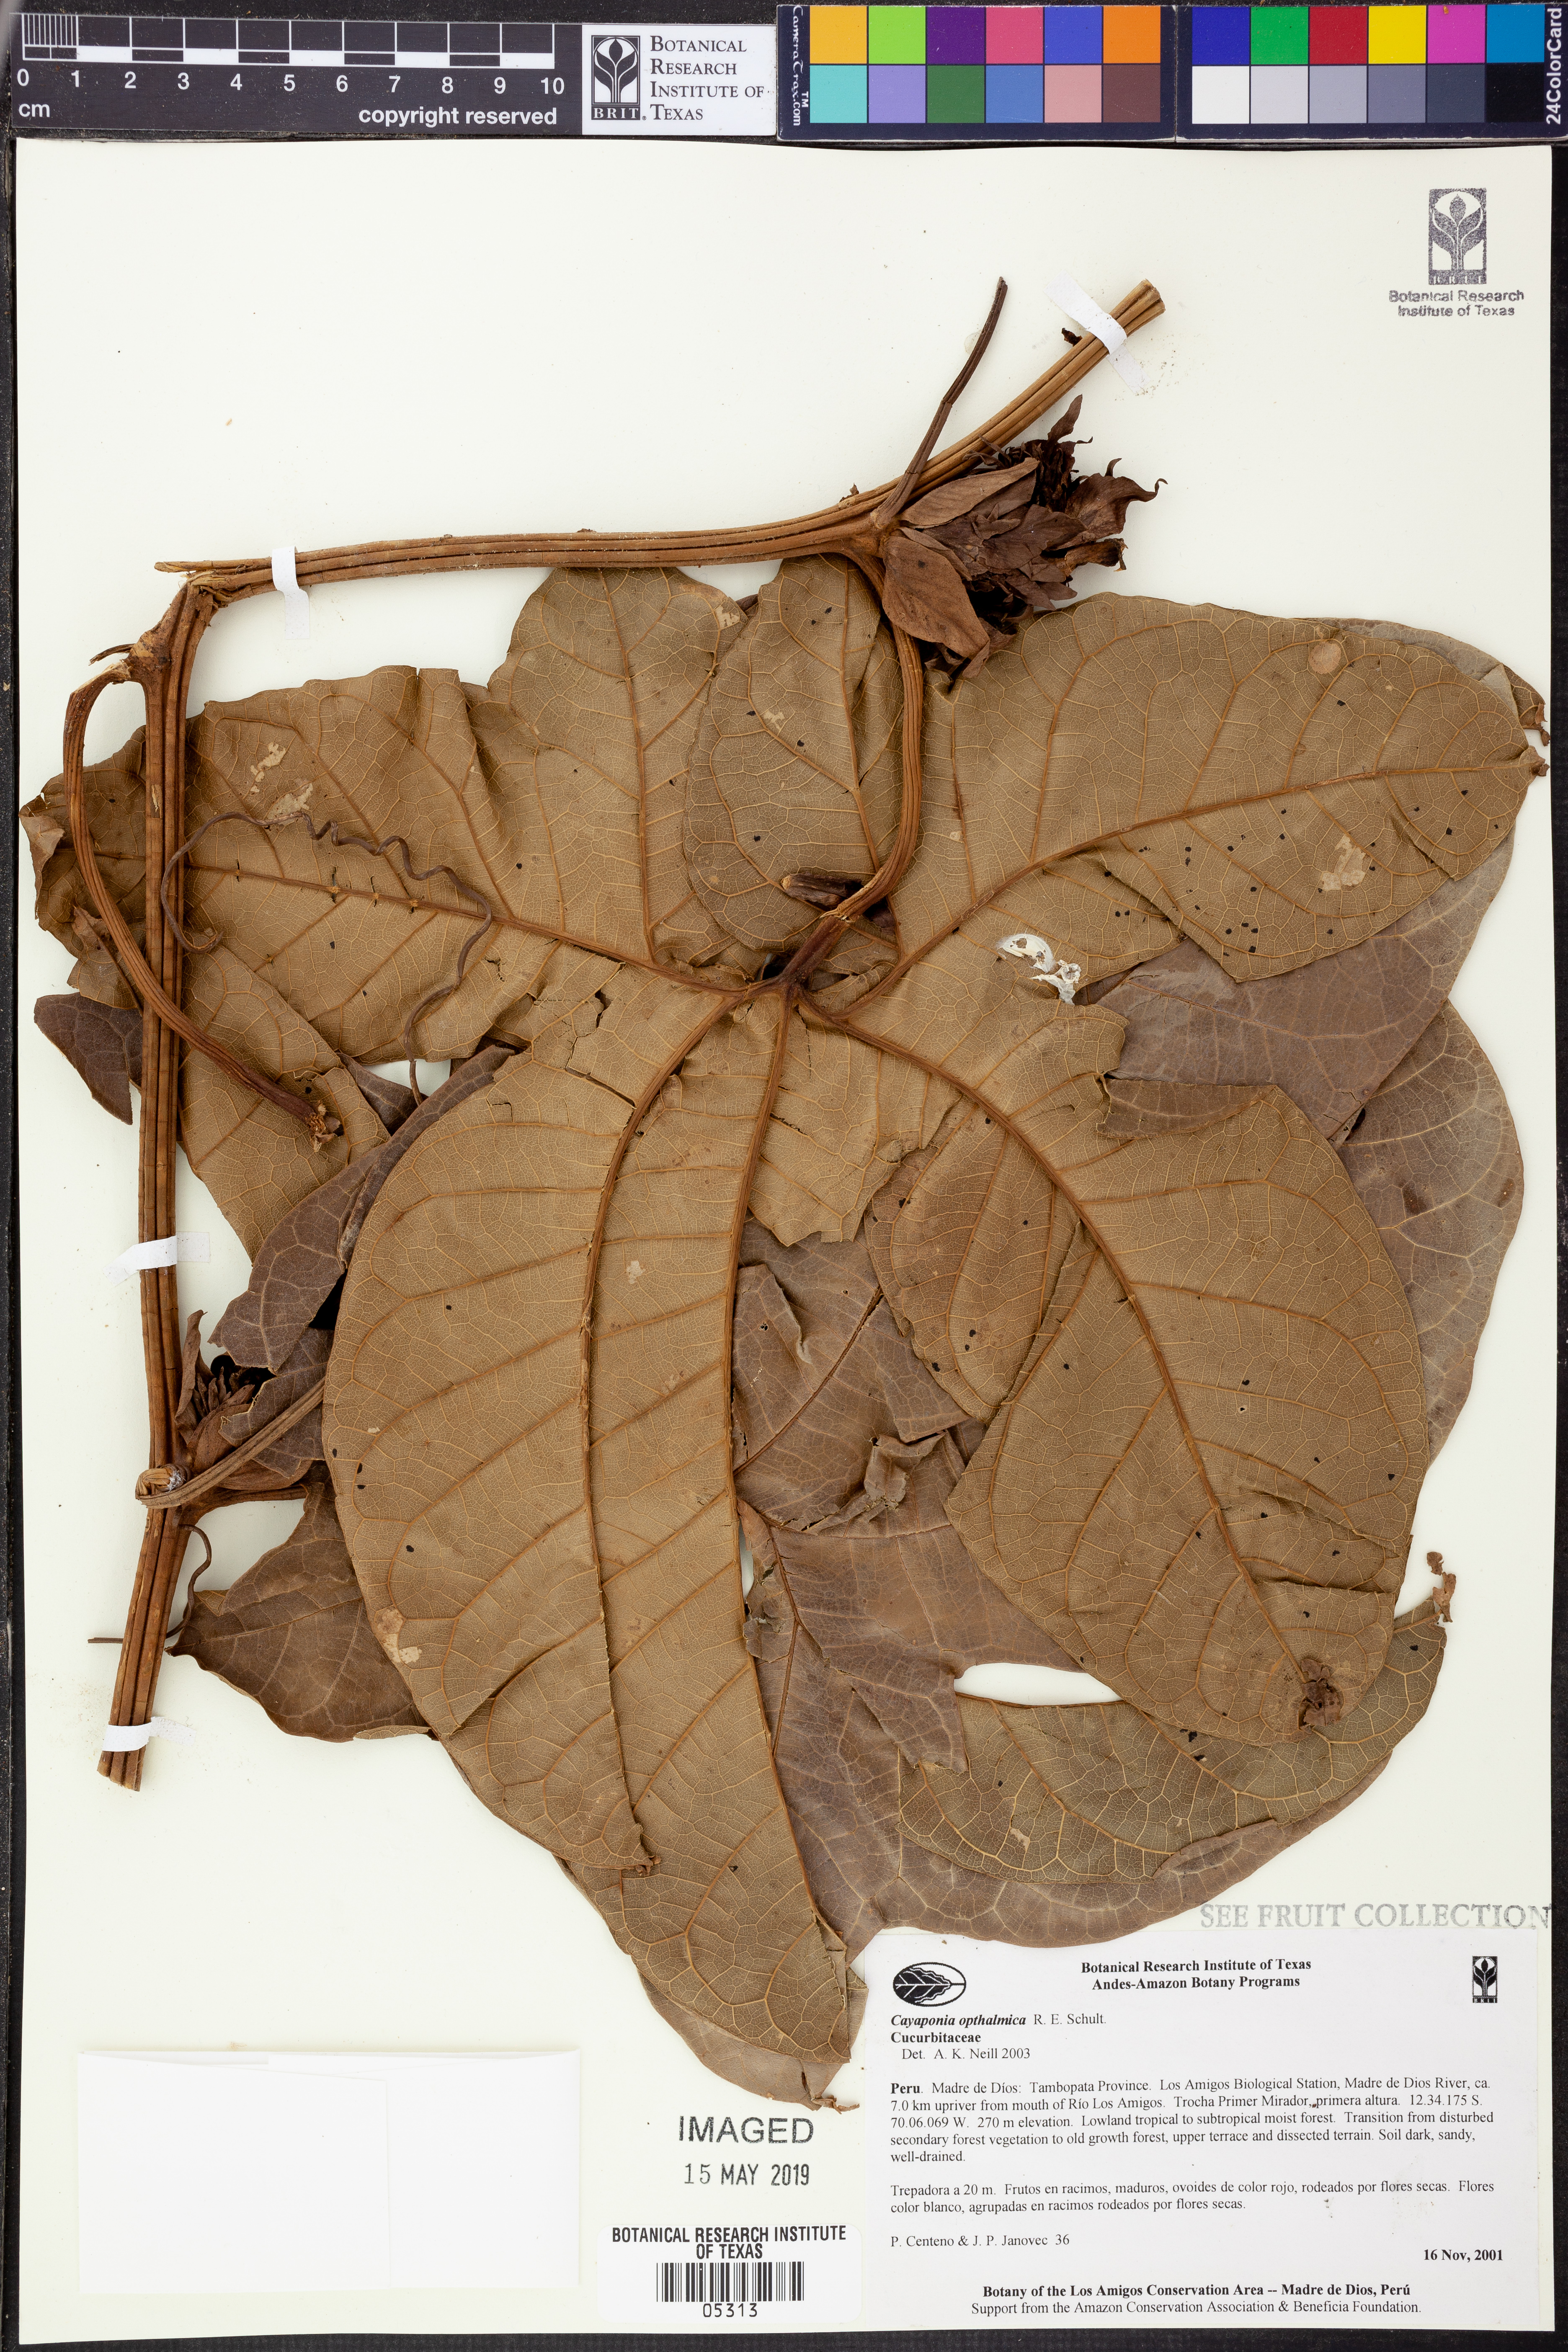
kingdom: Plantae
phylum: Tracheophyta
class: Magnoliopsida
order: Cucurbitales
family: Cucurbitaceae
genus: Cayaponia
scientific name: Cayaponia
